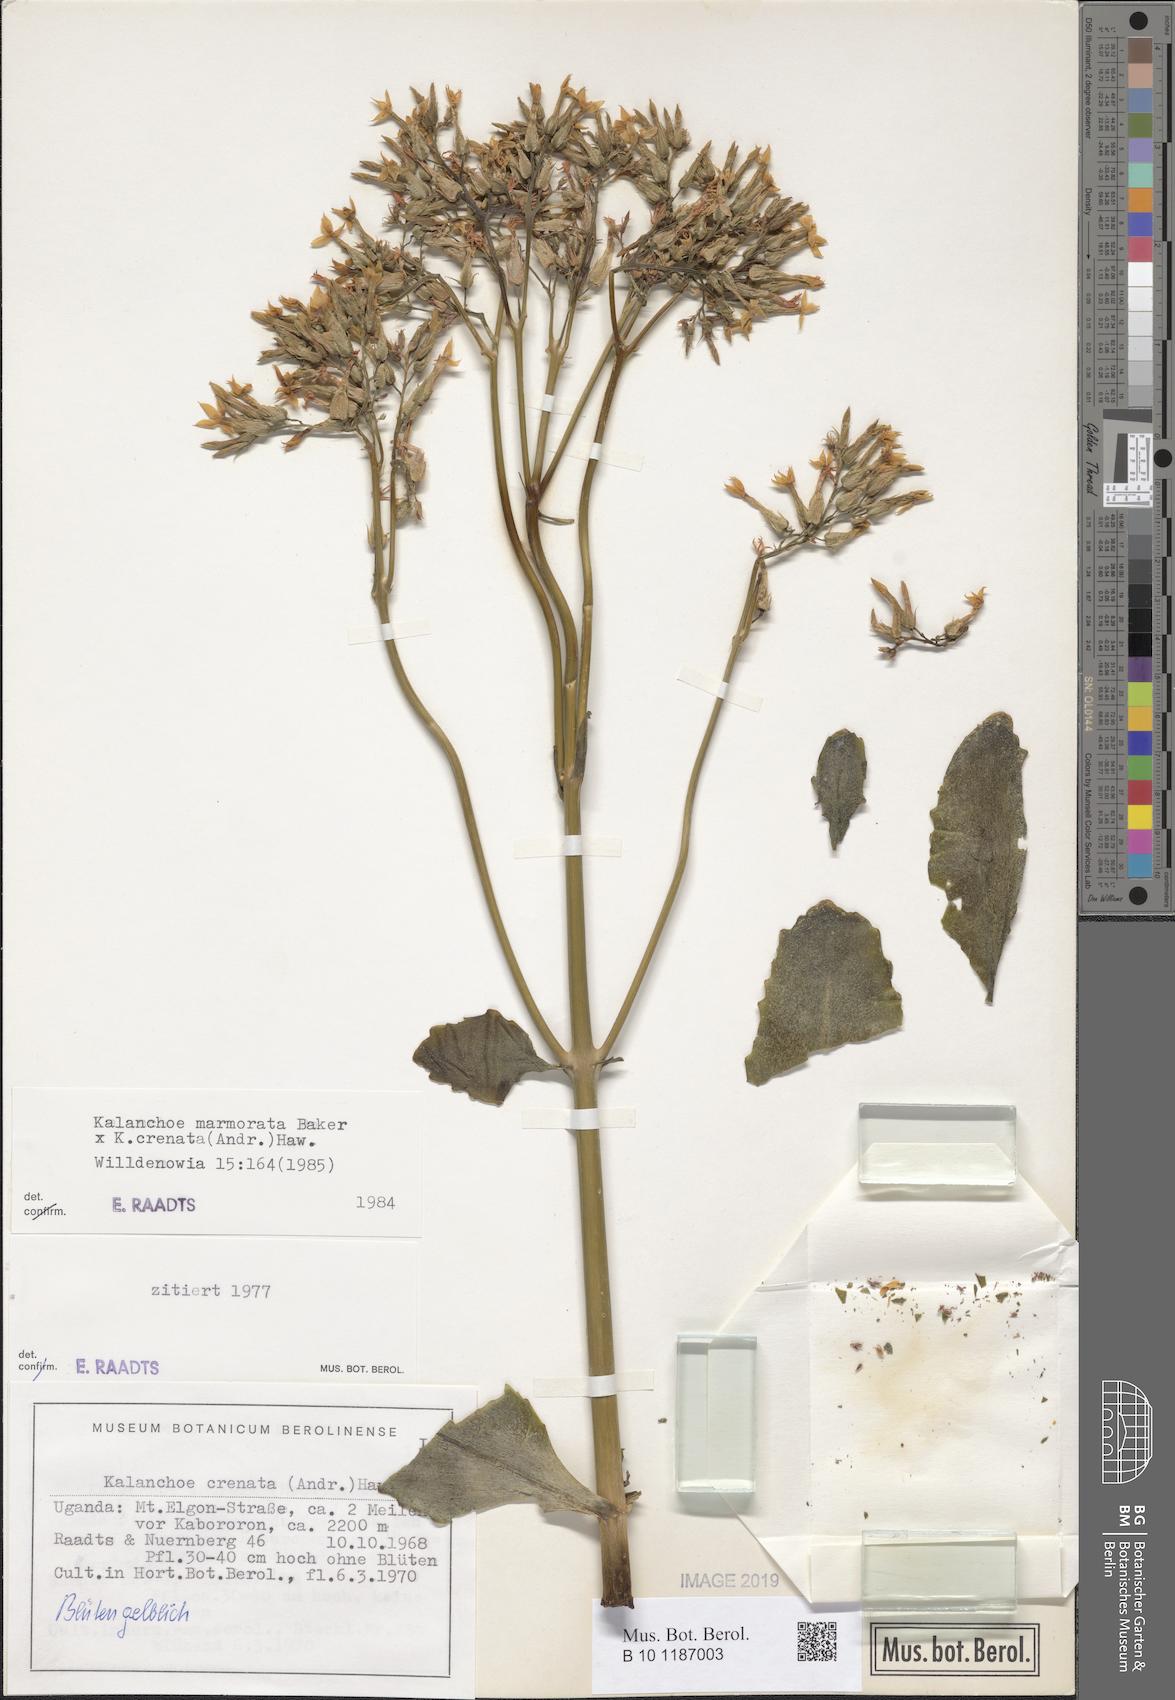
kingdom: Plantae
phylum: Tracheophyta
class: Magnoliopsida
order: Saxifragales
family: Crassulaceae
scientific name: Crassulaceae
